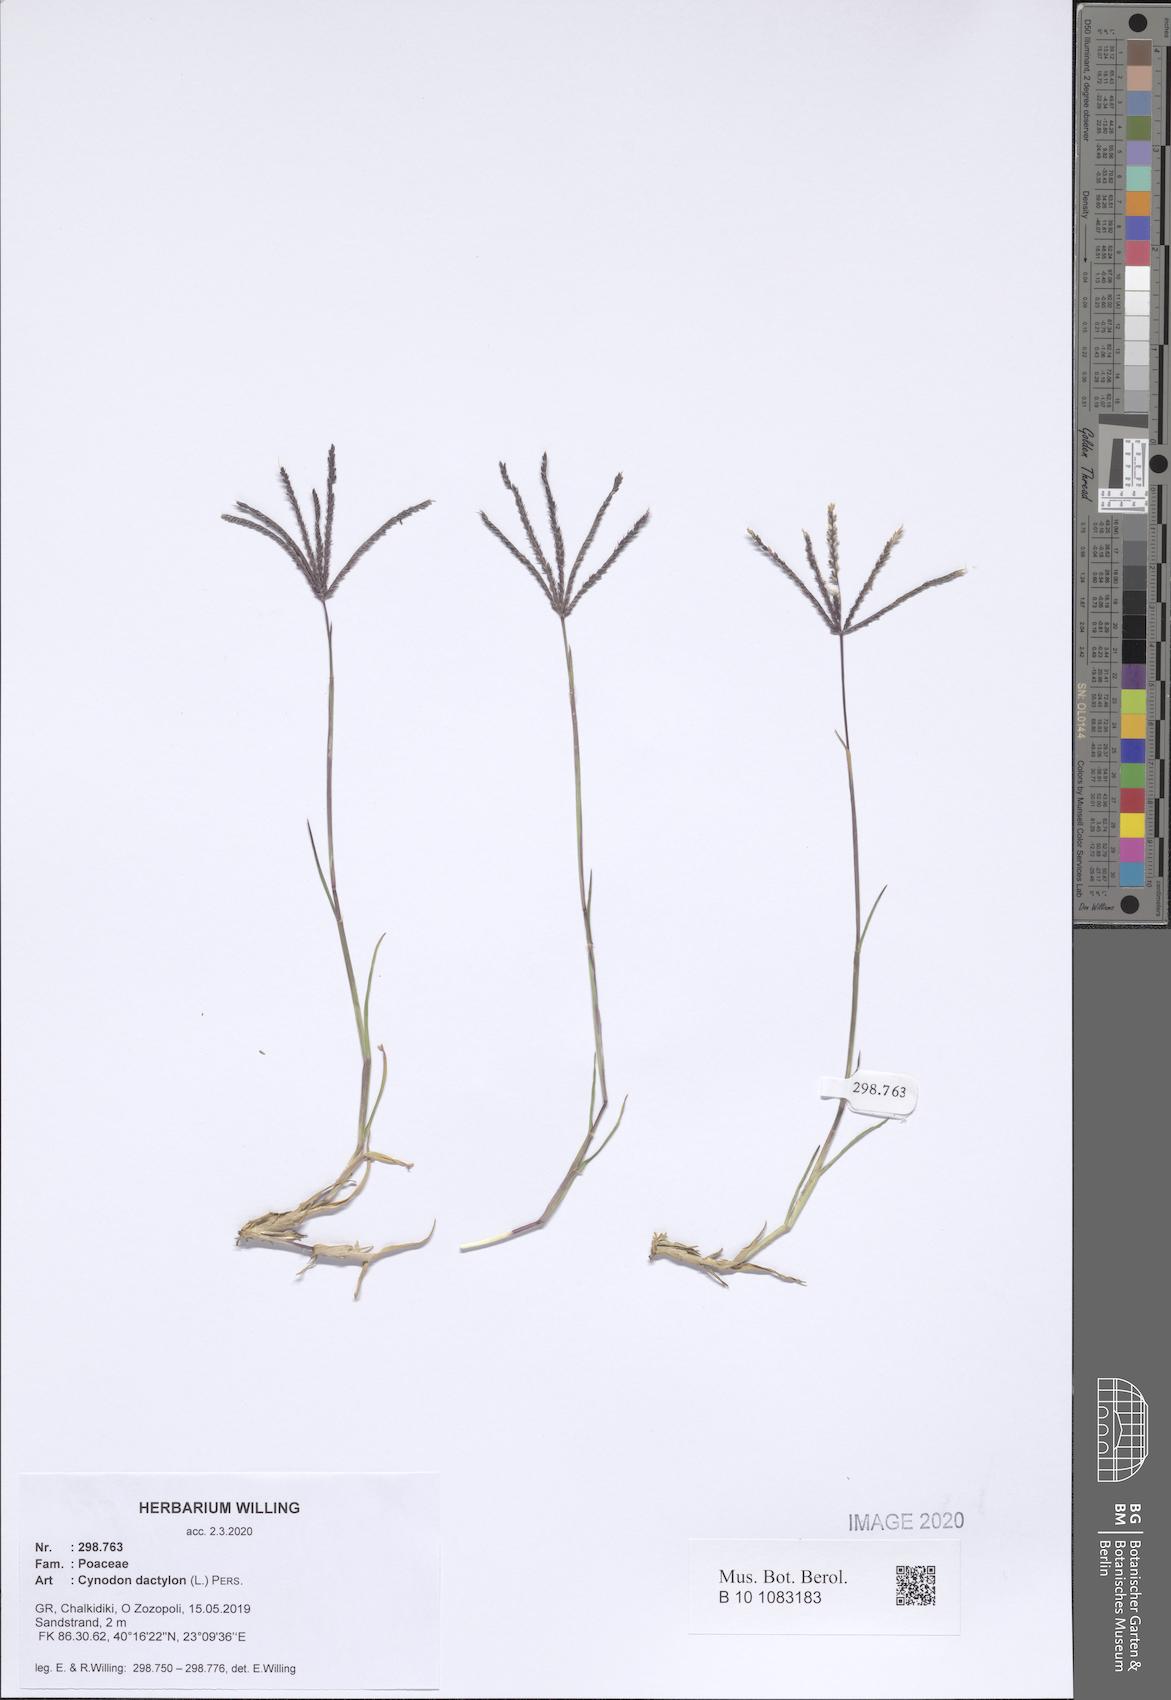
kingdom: Plantae
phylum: Tracheophyta
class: Liliopsida
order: Poales
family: Poaceae
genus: Cynodon
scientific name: Cynodon dactylon
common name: Bermuda grass
